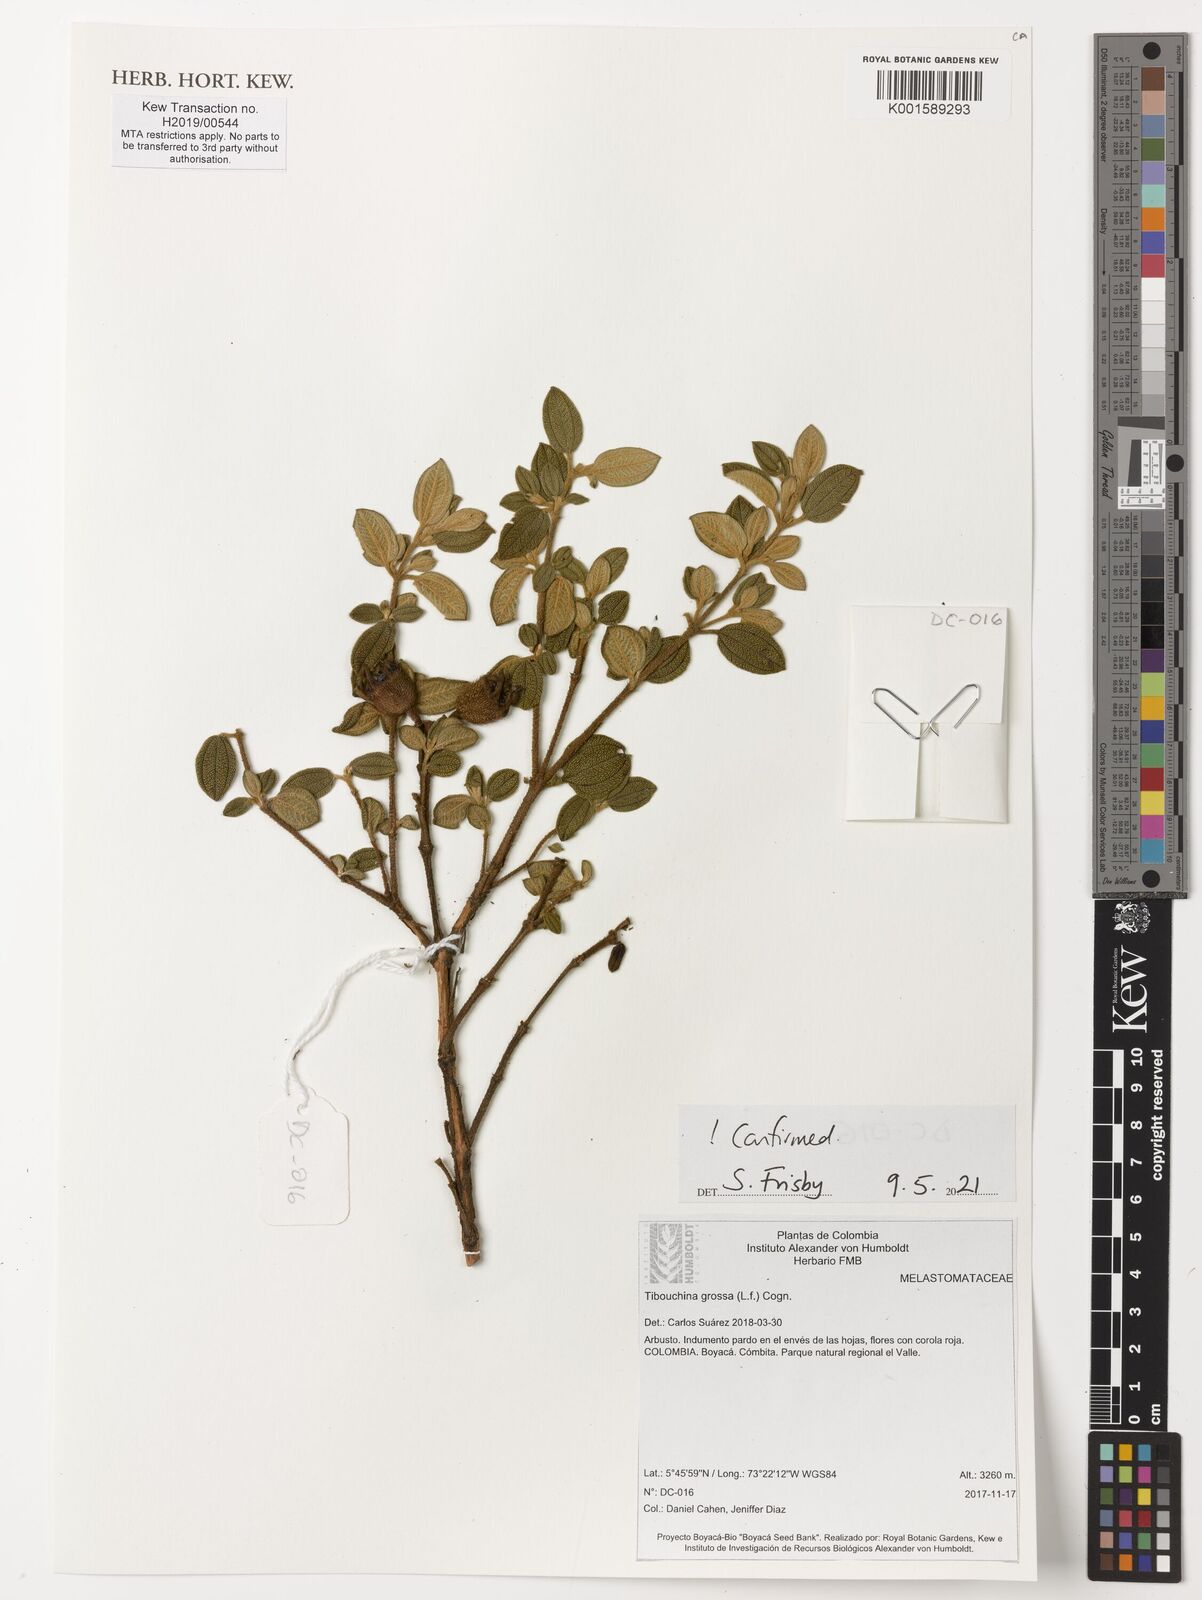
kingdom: Plantae
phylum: Tracheophyta
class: Magnoliopsida
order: Myrtales
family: Melastomataceae
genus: Chaetogastra
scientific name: Chaetogastra grossa
